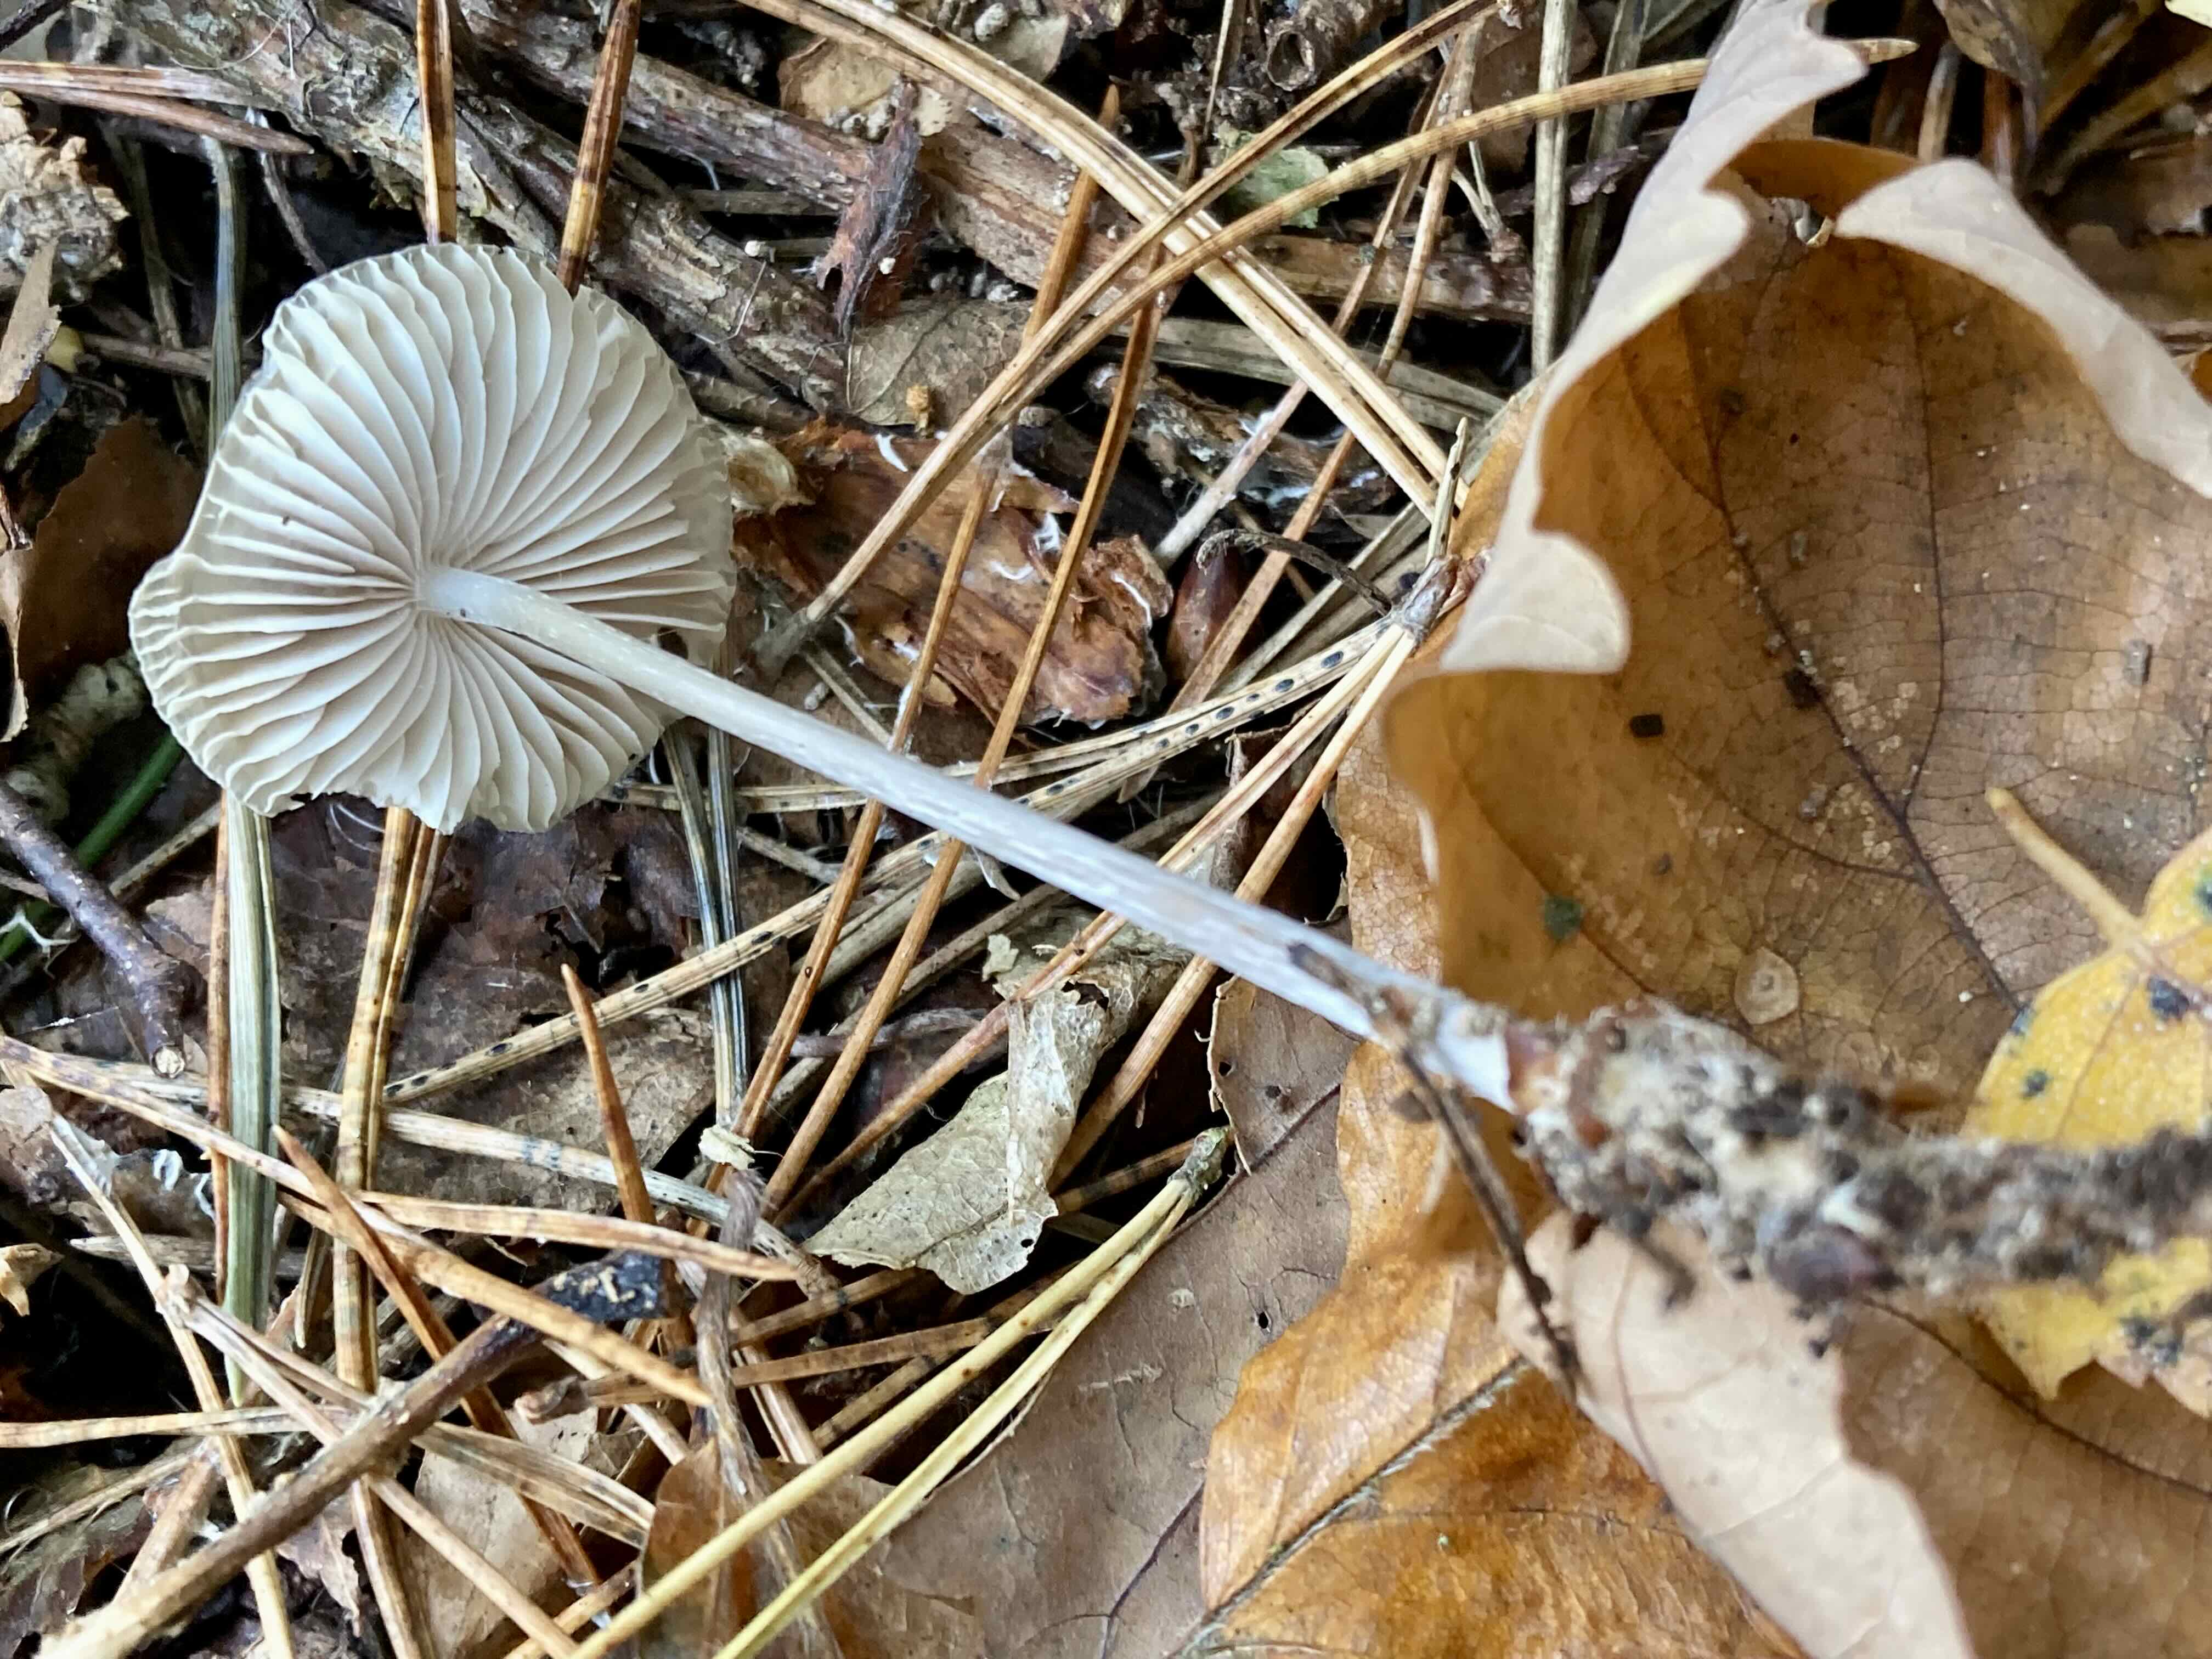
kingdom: Fungi
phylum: Basidiomycota
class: Agaricomycetes
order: Agaricales
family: Mycenaceae
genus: Mycena
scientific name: Mycena polygramma
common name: mangestribet huesvamp
